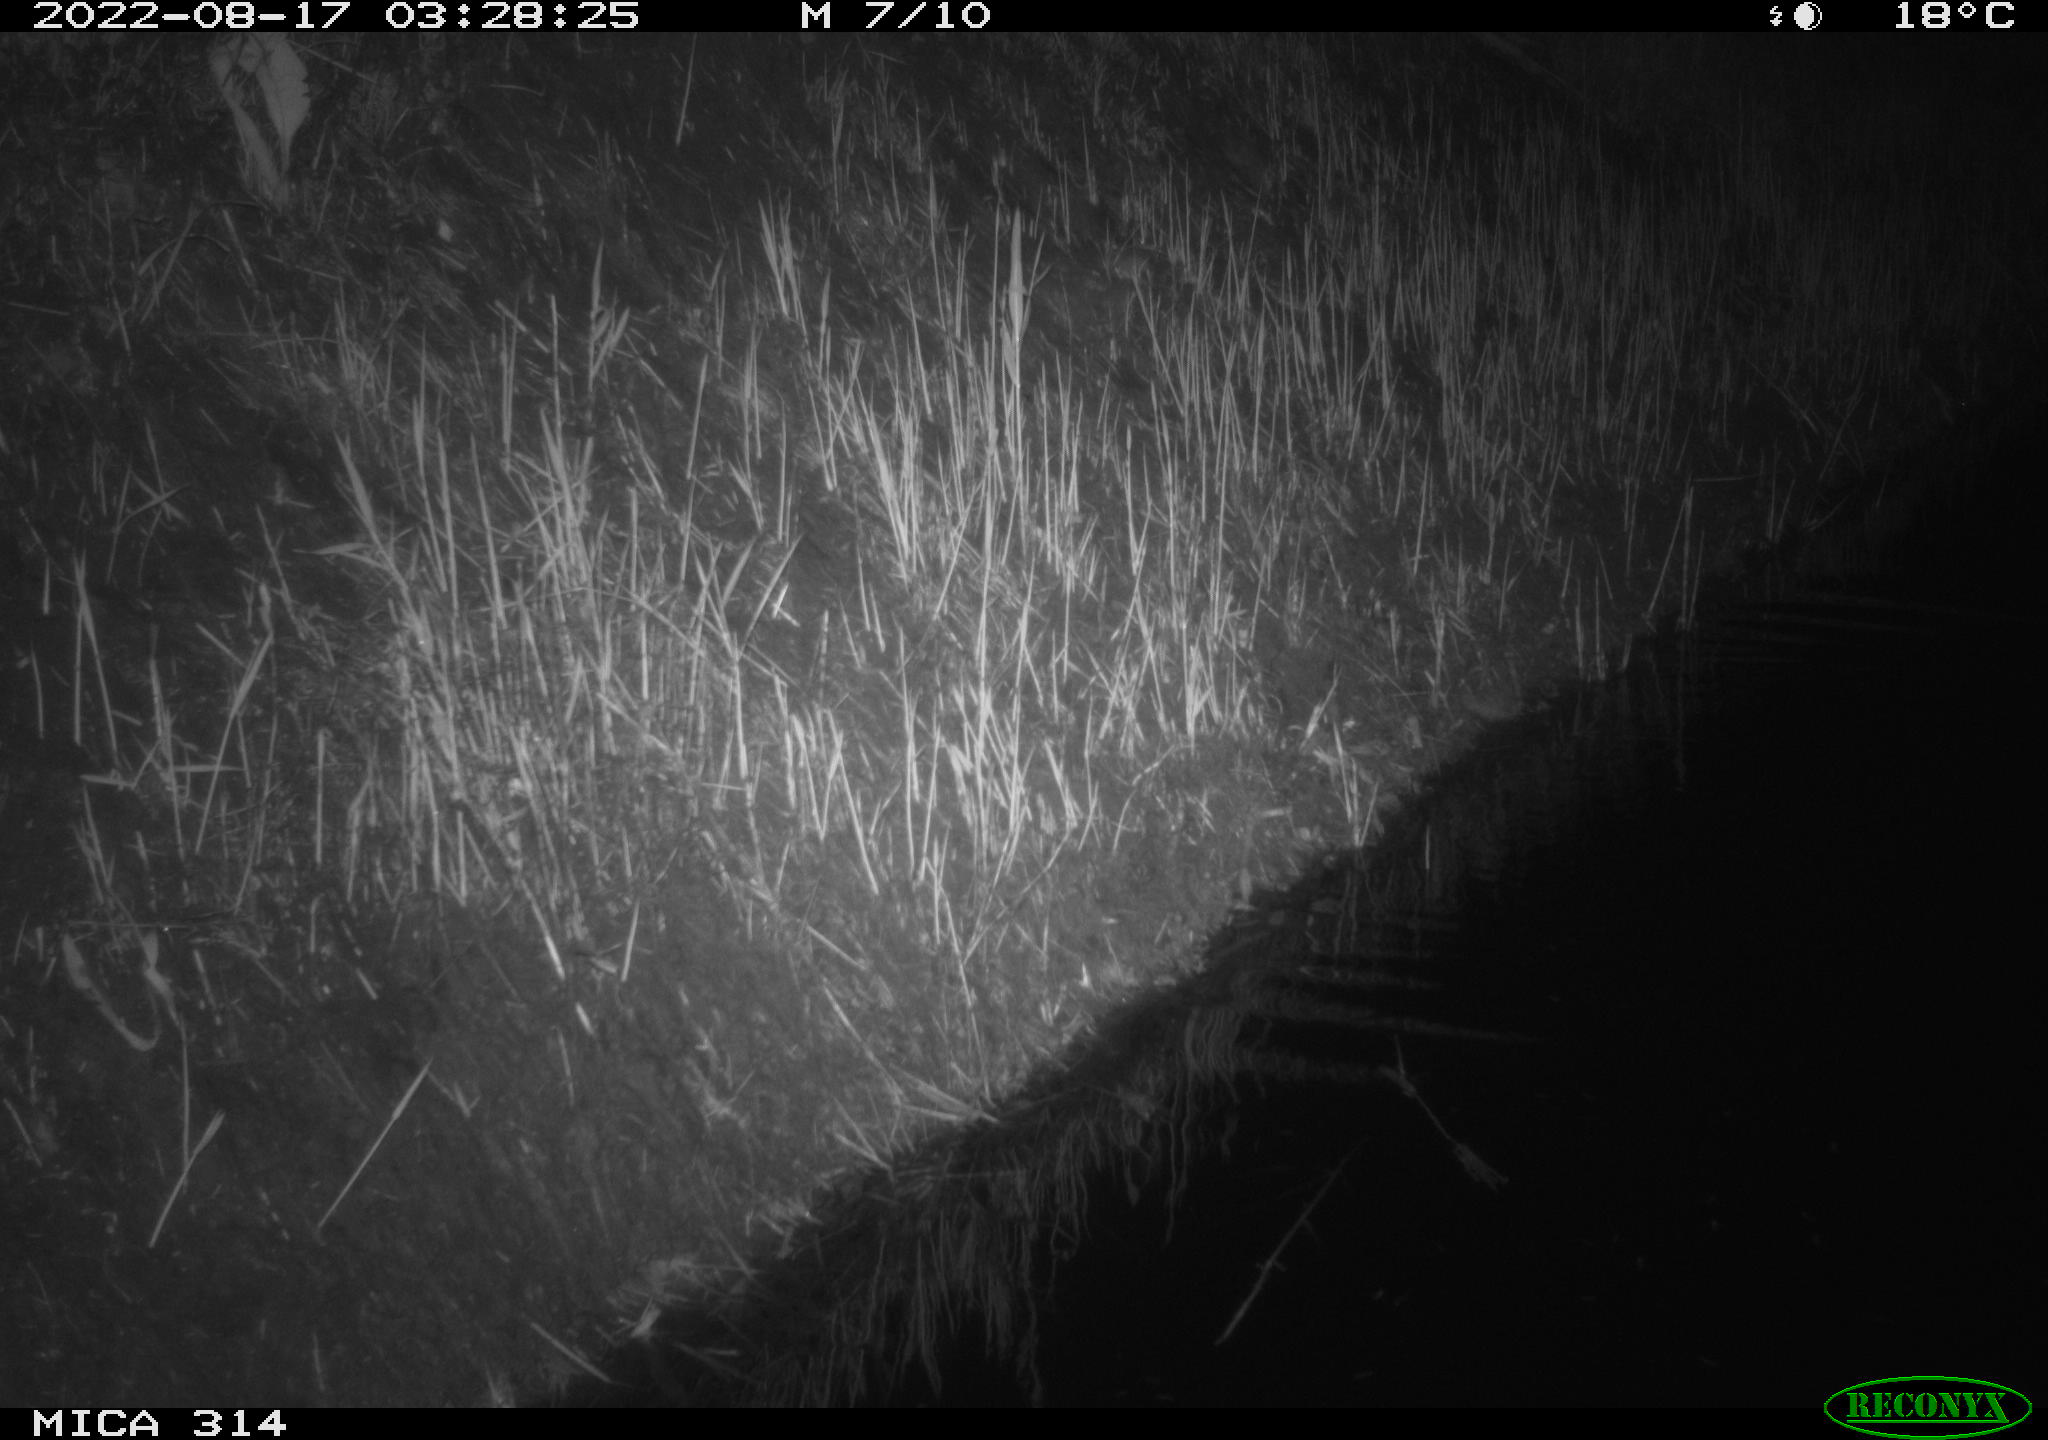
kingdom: Animalia
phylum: Chordata
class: Mammalia
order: Rodentia
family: Muridae
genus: Rattus
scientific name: Rattus norvegicus
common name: Brown rat
